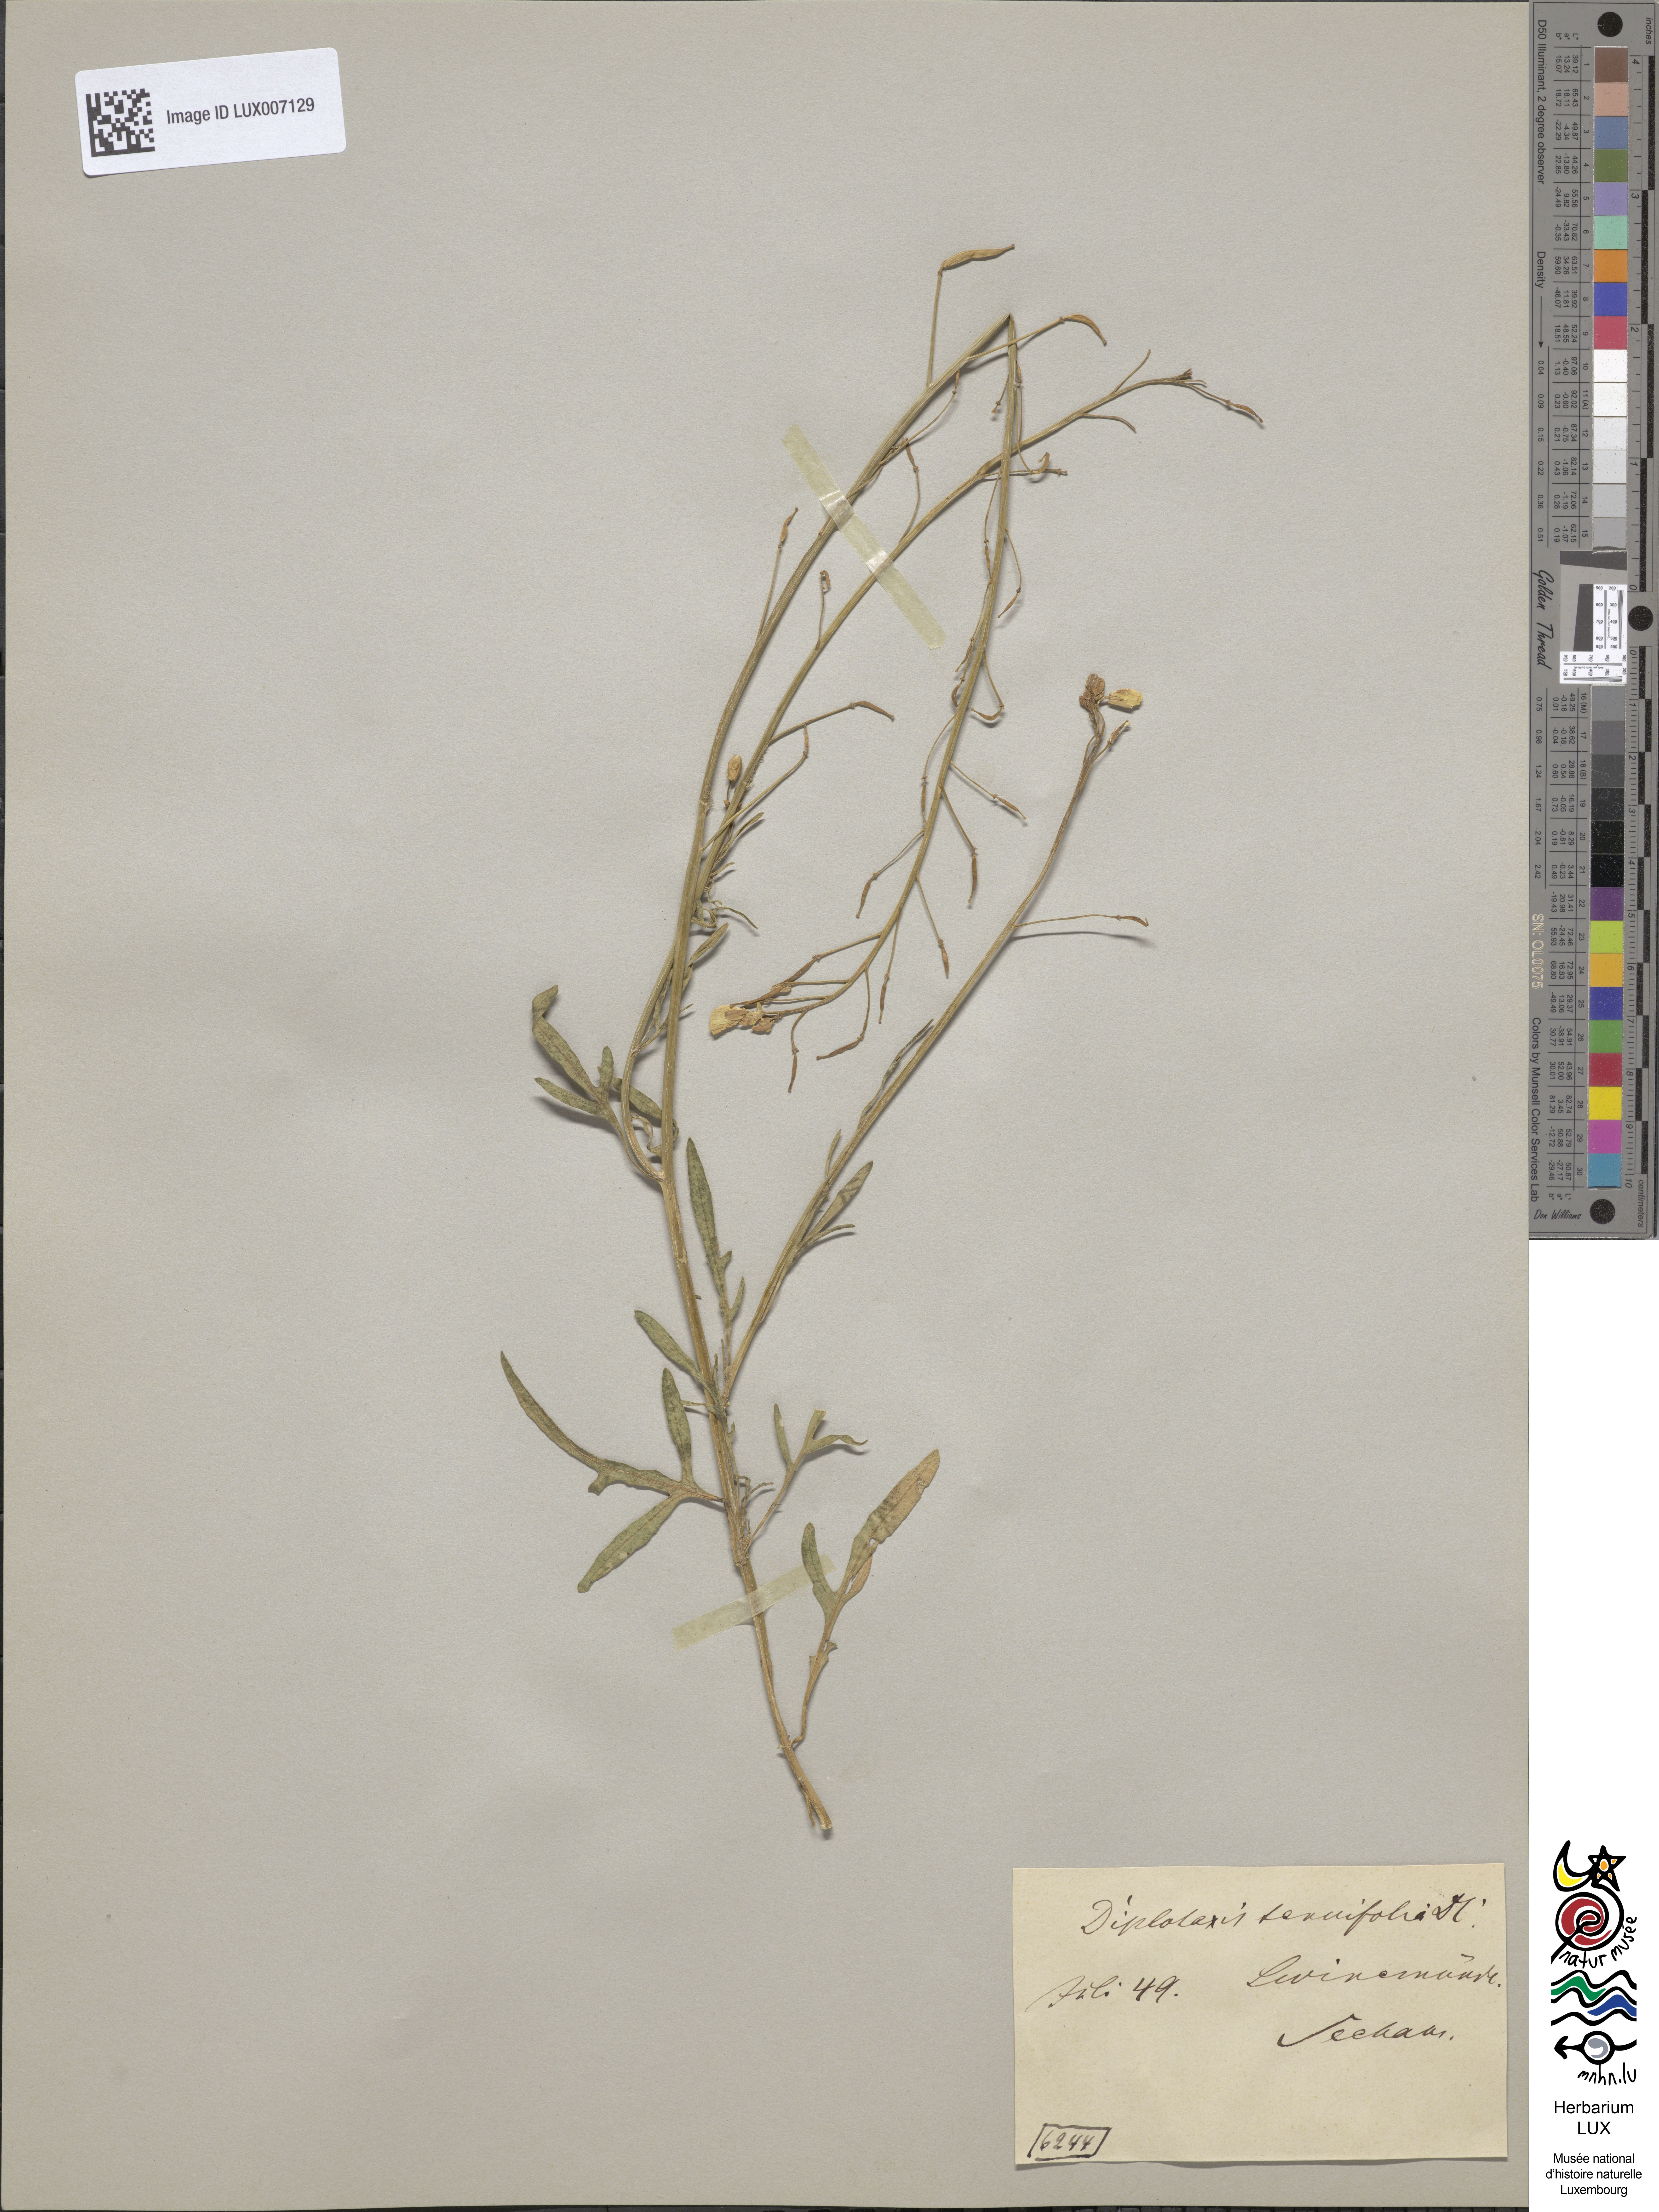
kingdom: Plantae
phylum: Tracheophyta
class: Magnoliopsida
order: Brassicales
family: Brassicaceae
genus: Diplotaxis
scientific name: Diplotaxis tenuifolia
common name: Perennial wall-rocket
